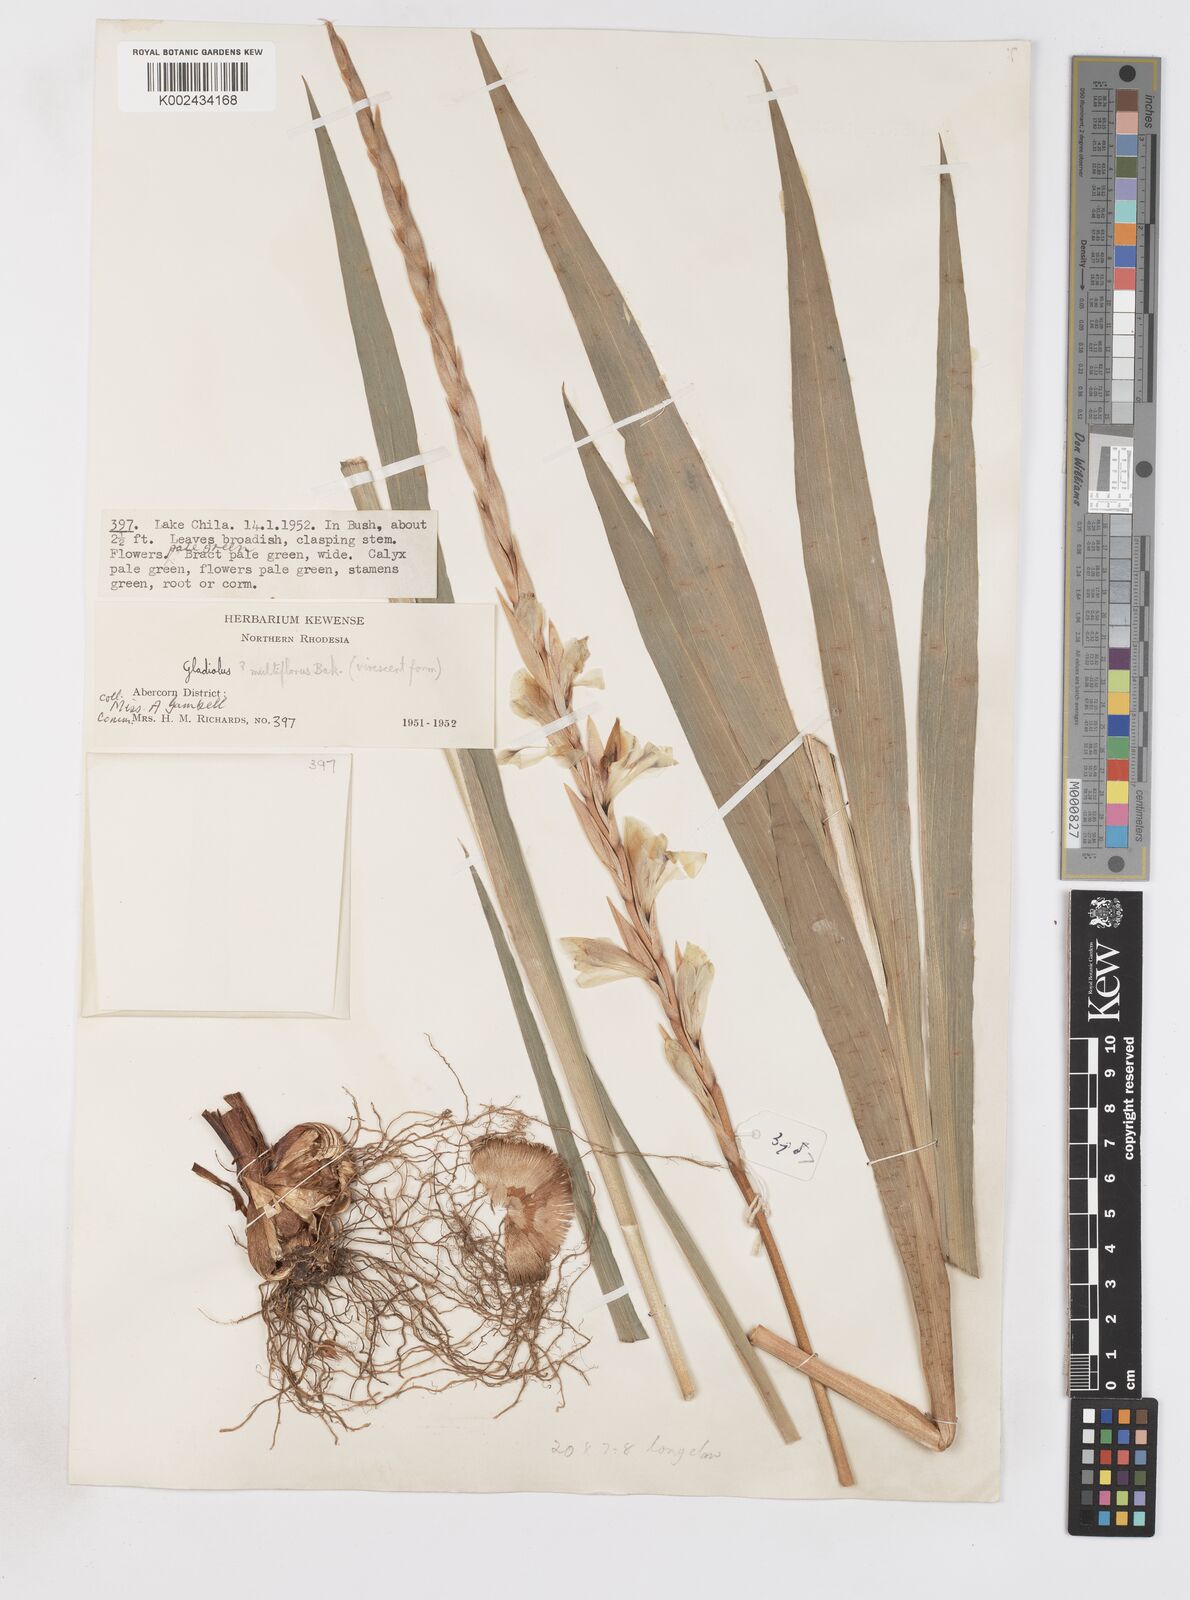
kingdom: Plantae
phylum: Tracheophyta
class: Liliopsida
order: Asparagales
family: Iridaceae
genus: Gladiolus
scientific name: Gladiolus gregarius
